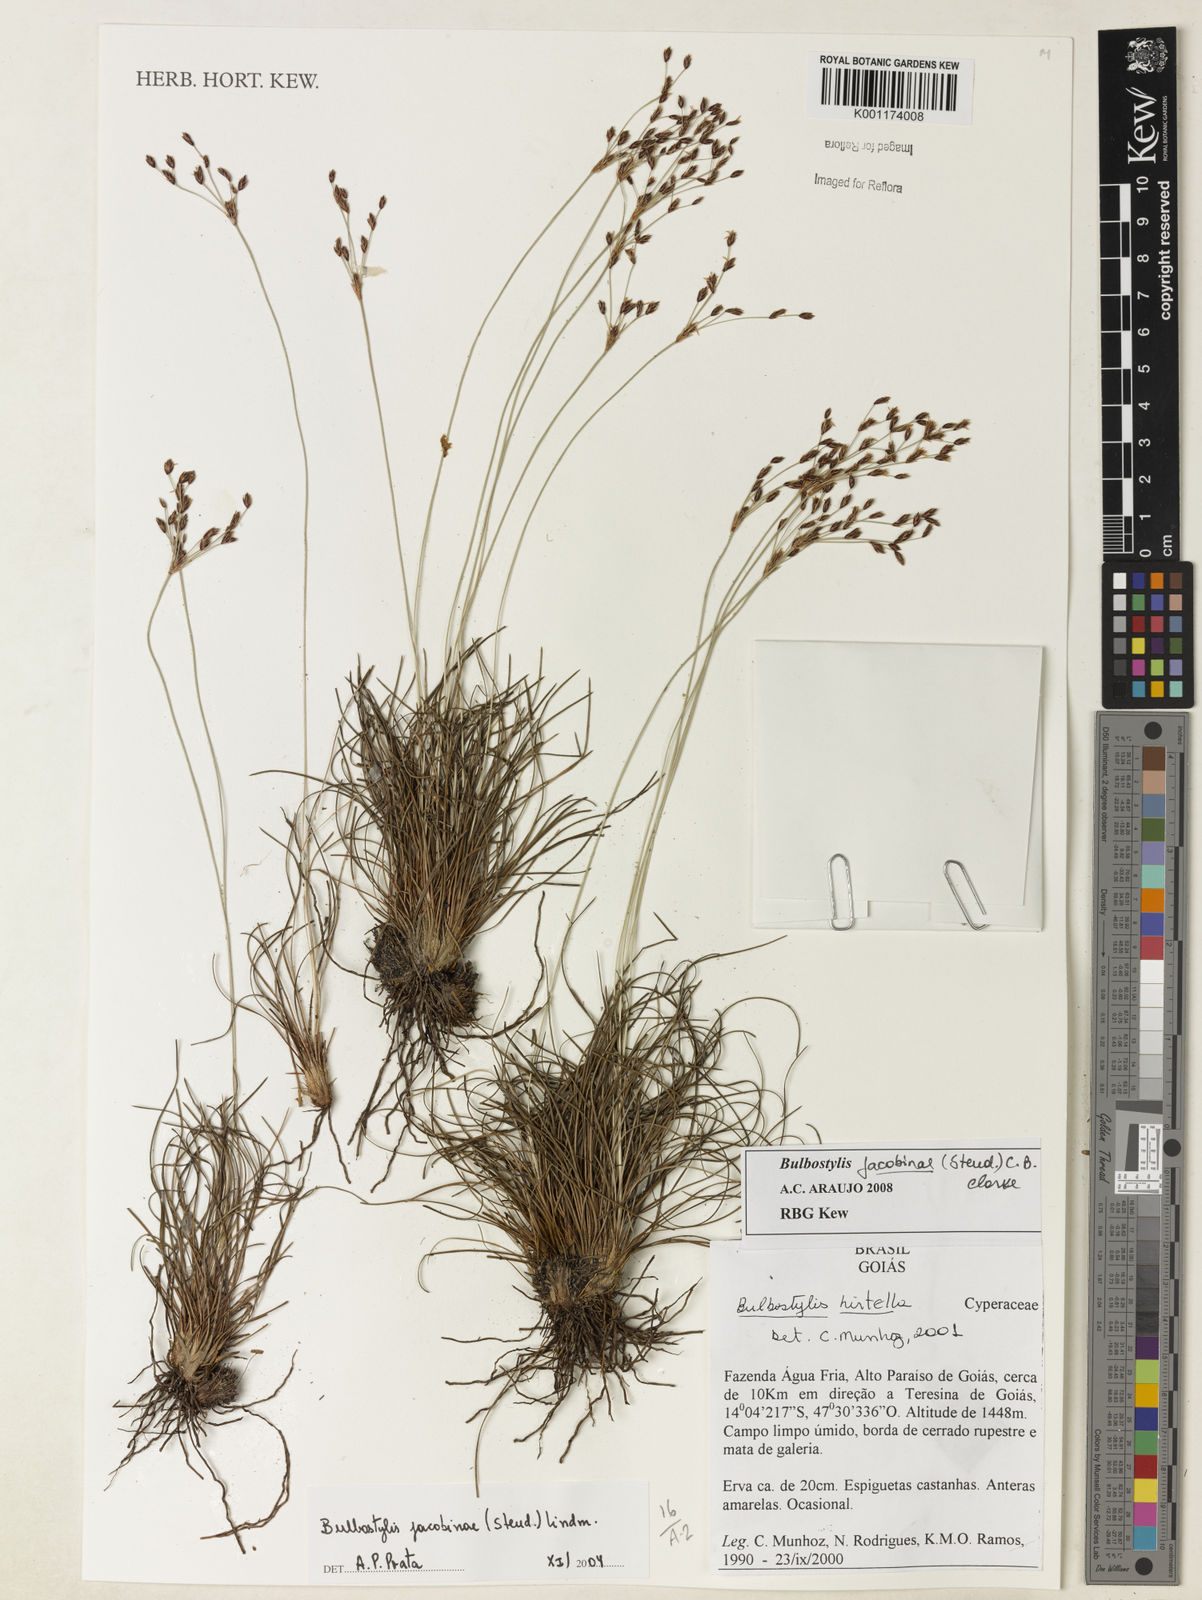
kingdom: Plantae
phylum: Tracheophyta
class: Liliopsida
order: Poales
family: Cyperaceae
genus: Bulbostylis
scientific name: Bulbostylis jacobinae
